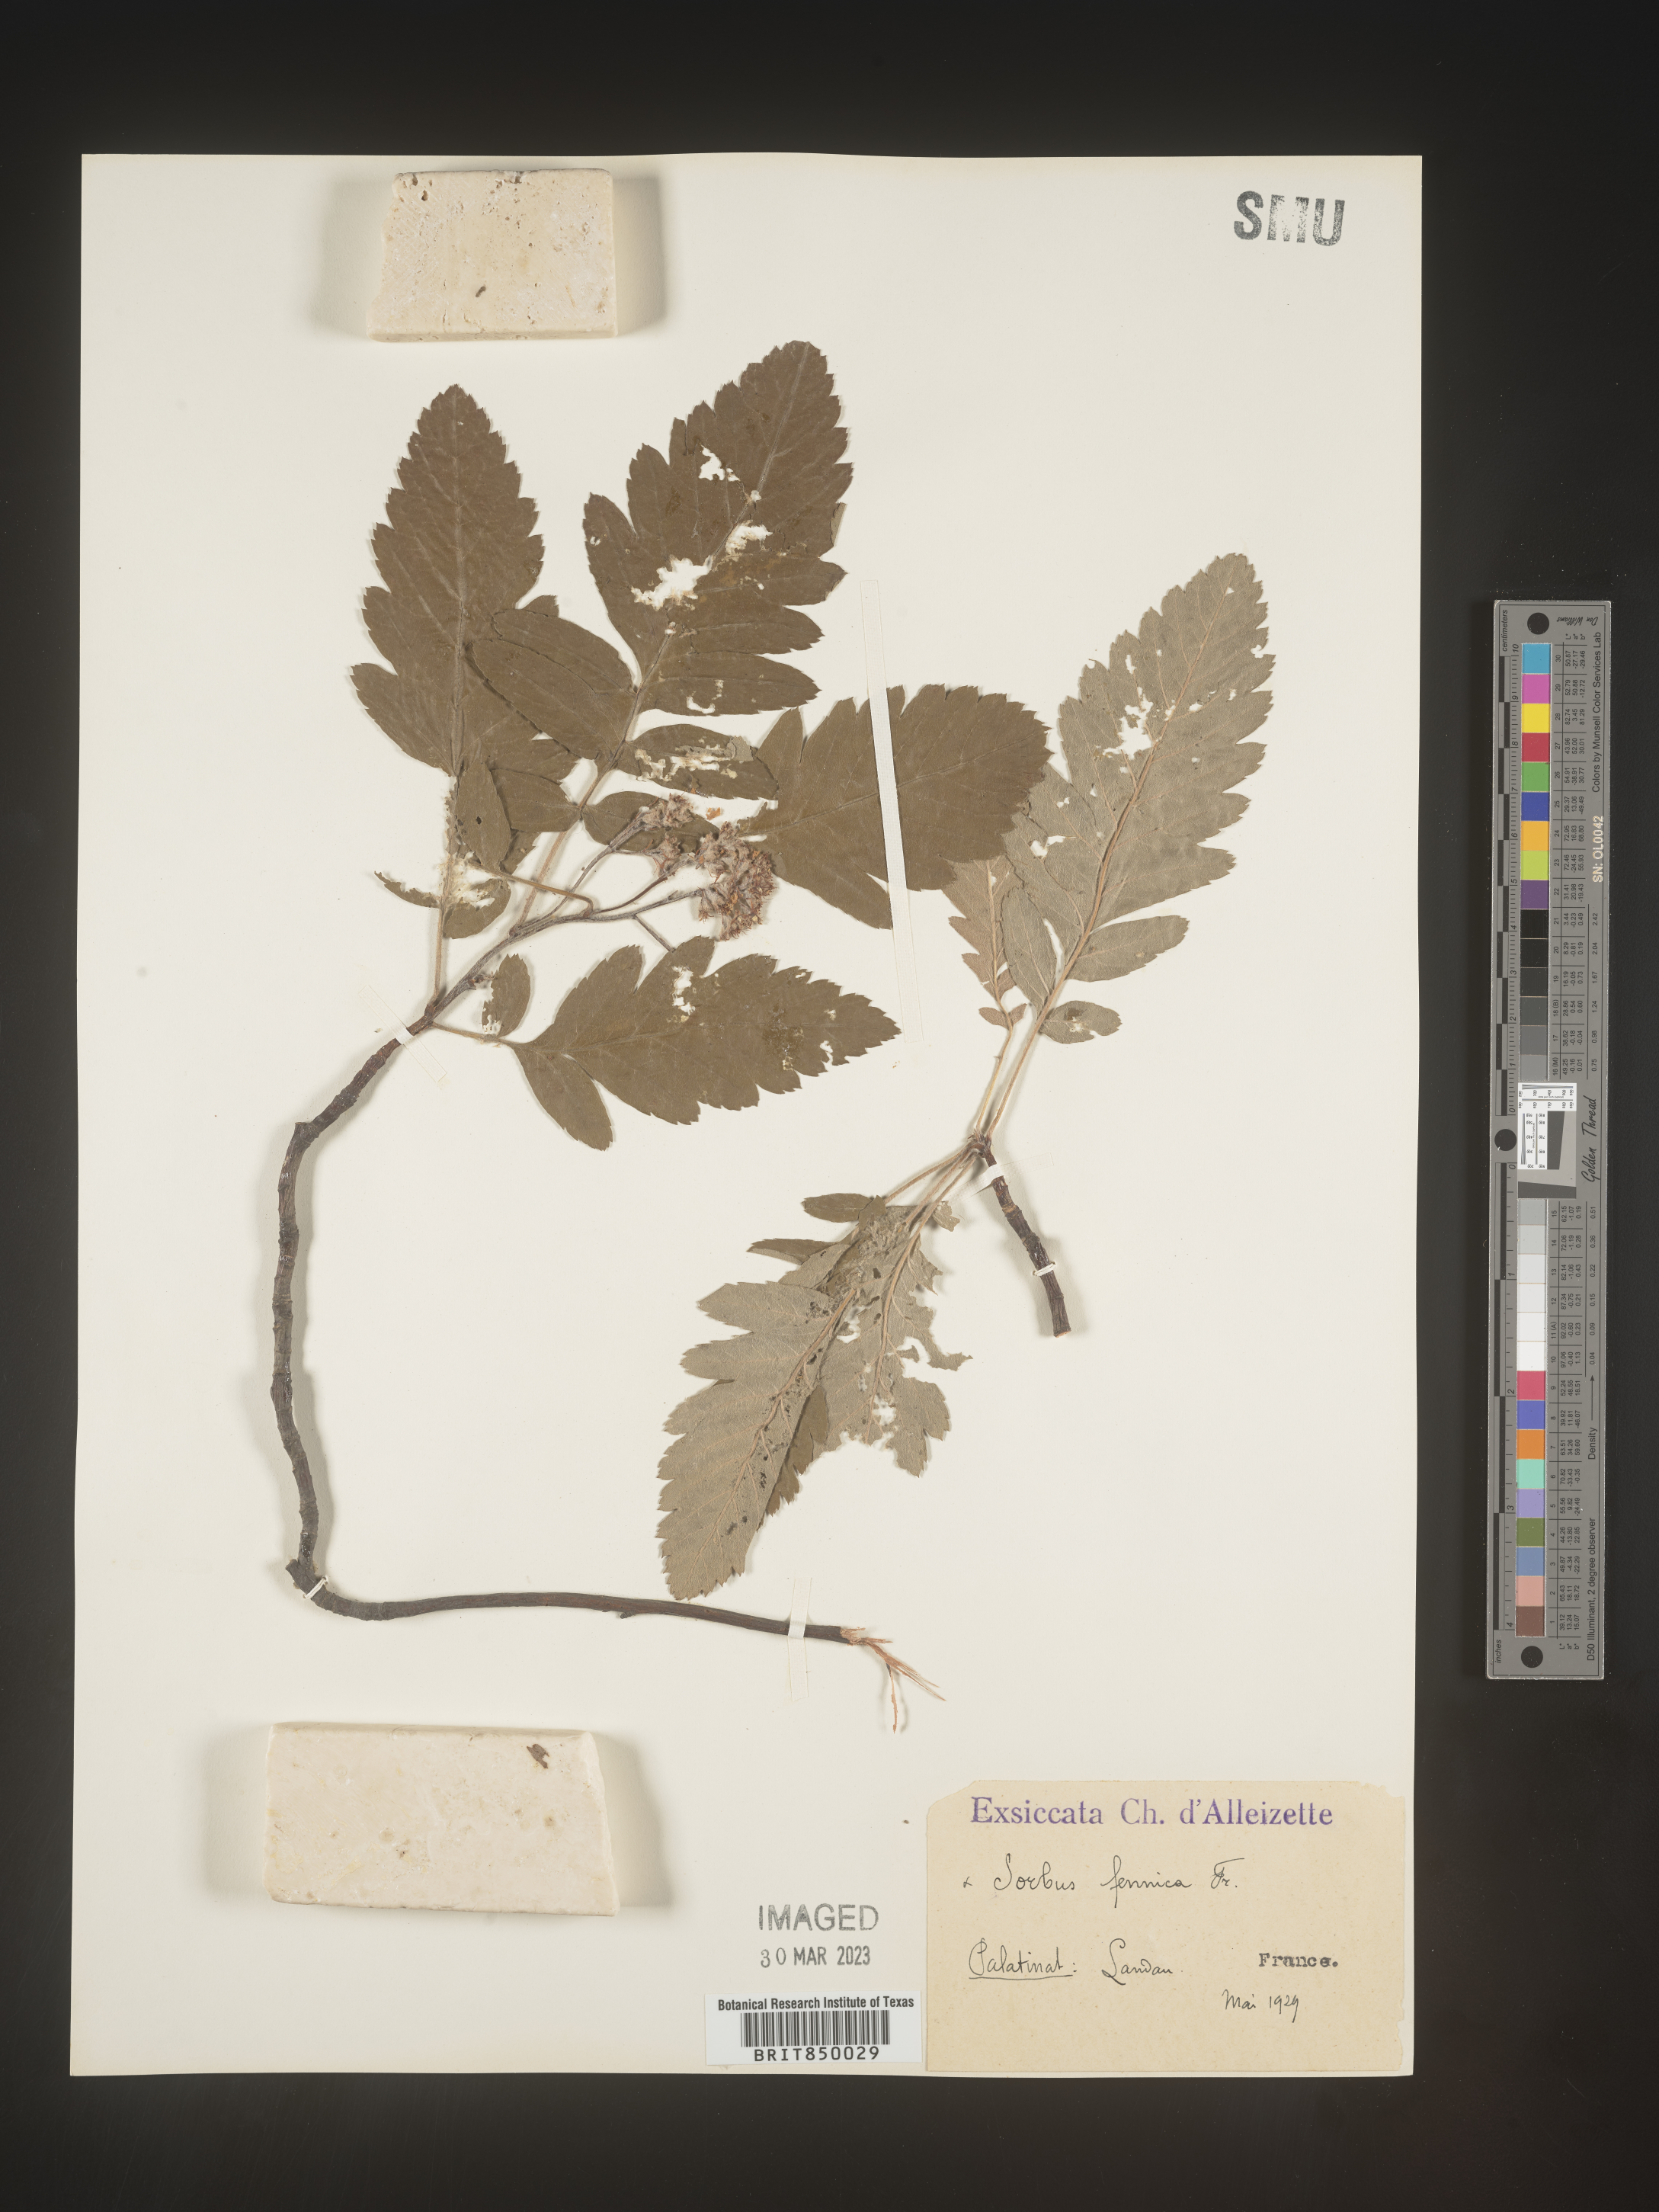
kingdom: Plantae
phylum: Tracheophyta
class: Magnoliopsida
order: Rosales
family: Rosaceae
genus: Sorbus
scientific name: Sorbus
